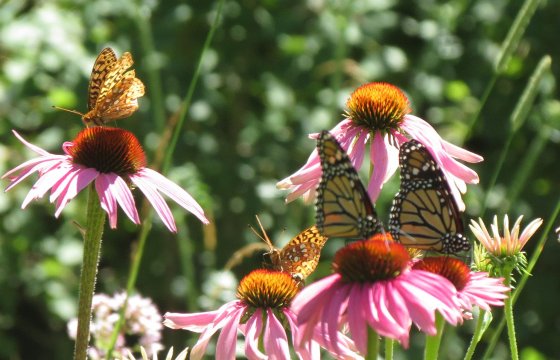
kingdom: Animalia
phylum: Arthropoda
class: Insecta
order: Lepidoptera
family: Nymphalidae
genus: Danaus
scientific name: Danaus plexippus
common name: Monarch
